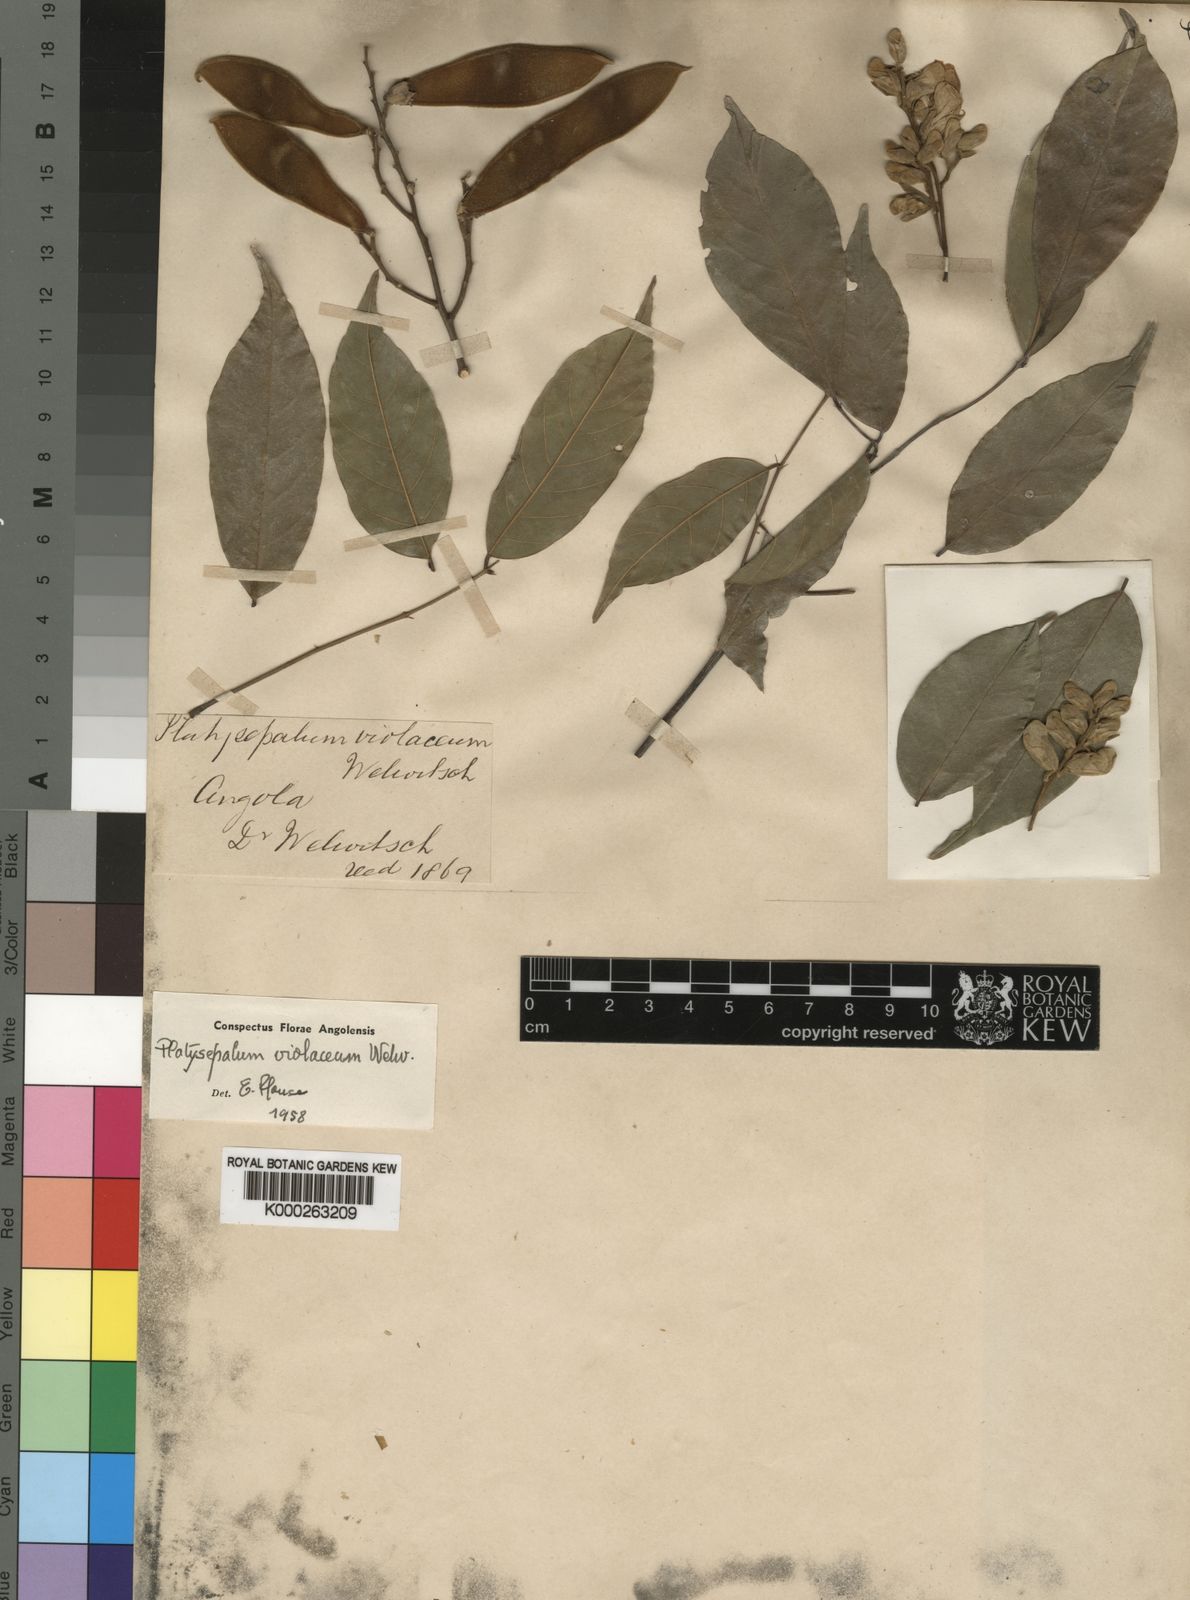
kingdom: Plantae
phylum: Tracheophyta
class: Magnoliopsida
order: Fabales
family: Fabaceae
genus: Platysepalum
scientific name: Platysepalum
